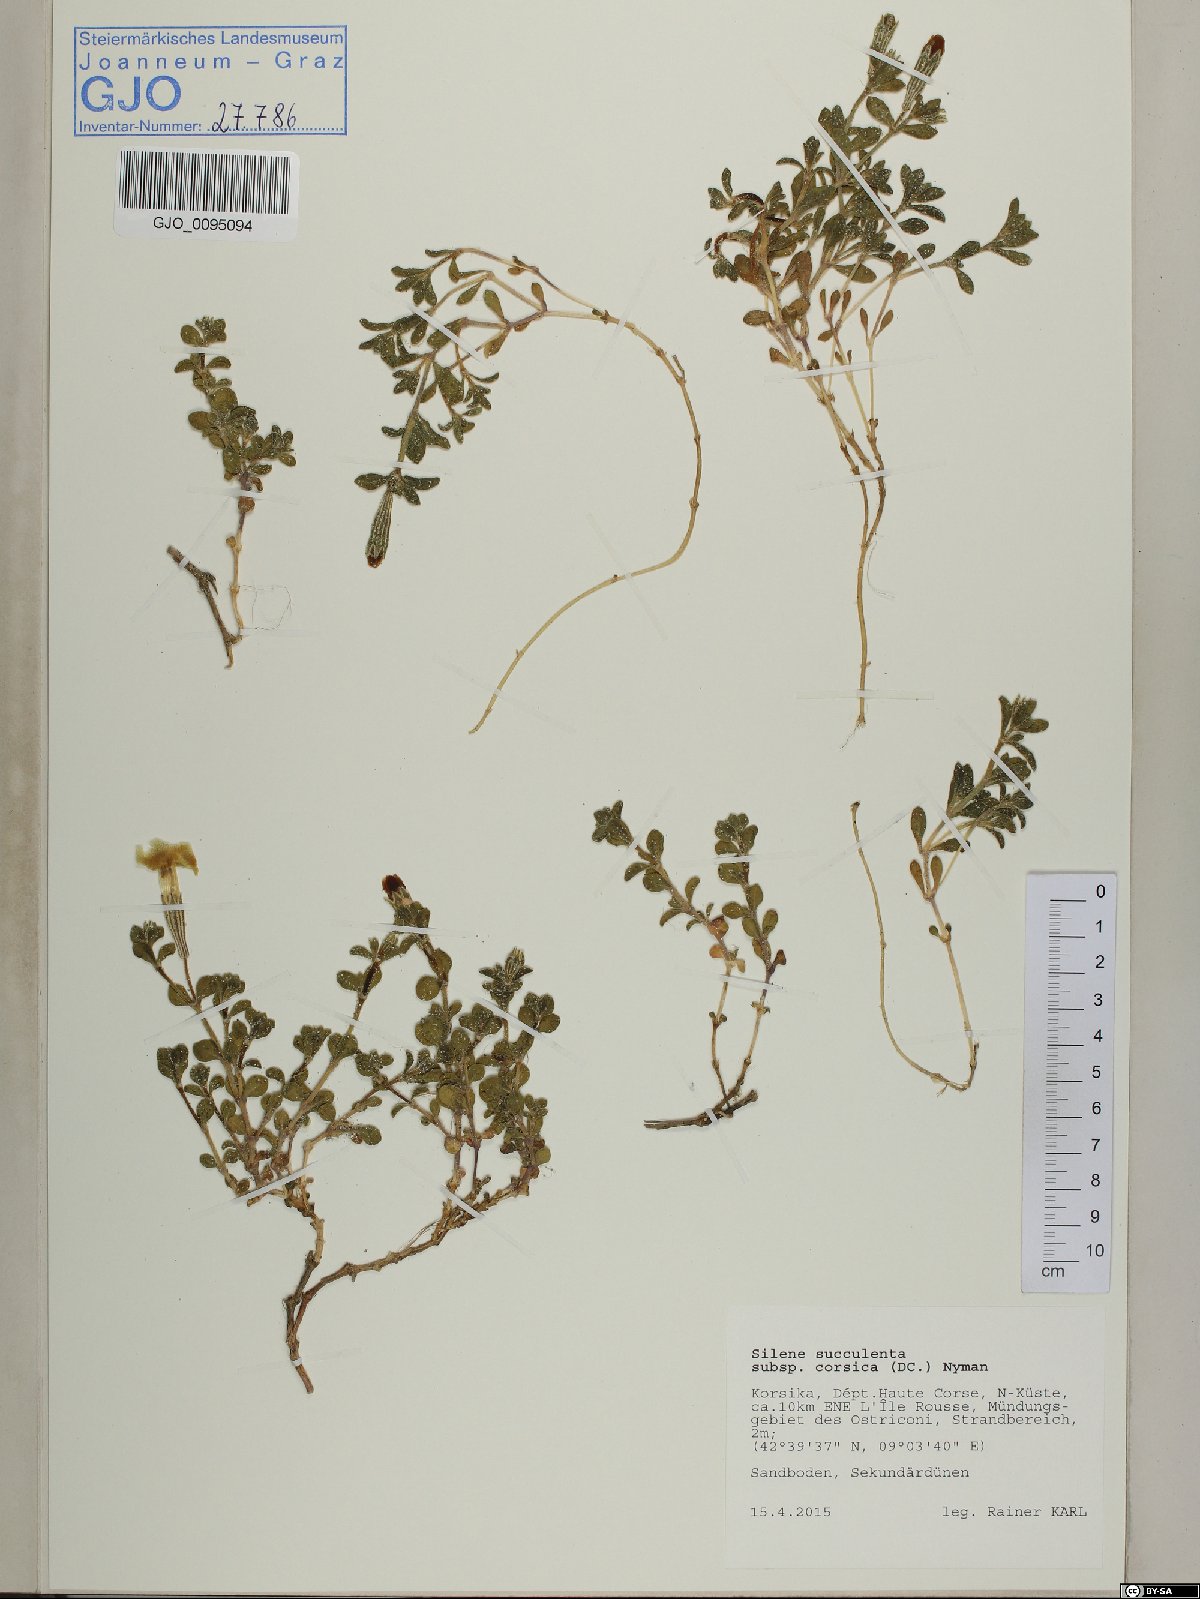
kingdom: Plantae
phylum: Tracheophyta
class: Magnoliopsida
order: Caryophyllales
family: Caryophyllaceae
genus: Silene
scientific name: Silene succulenta
